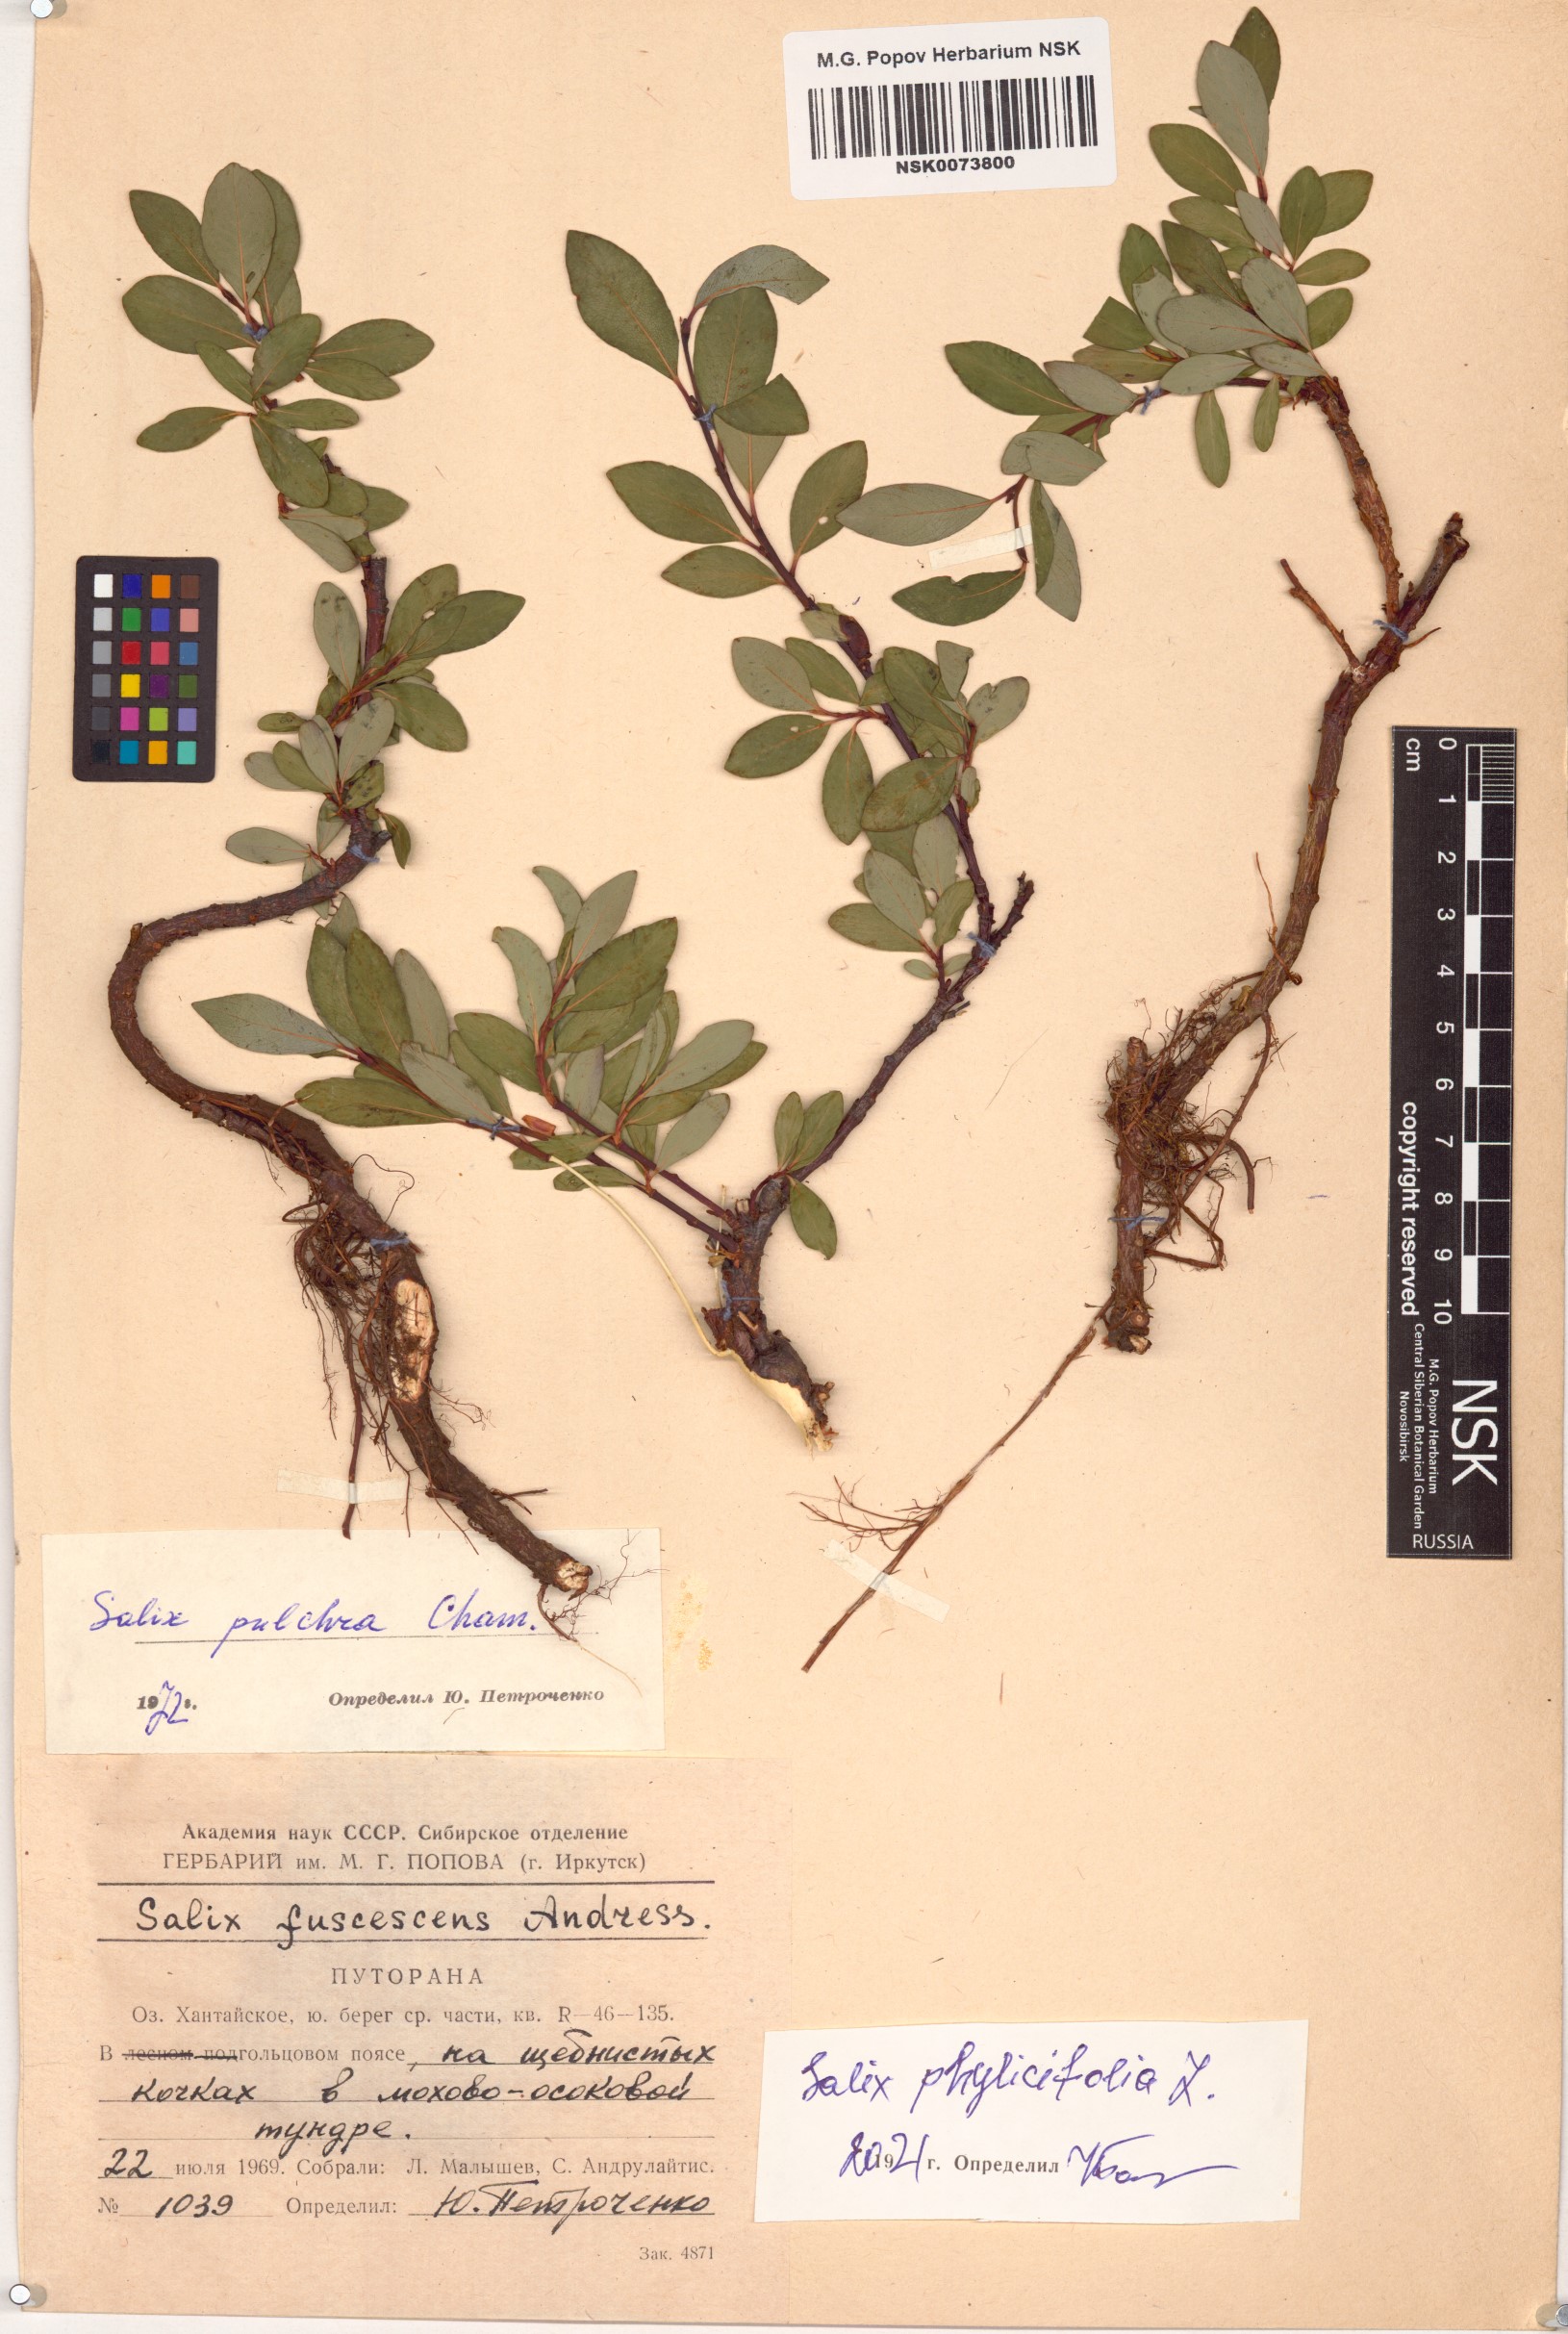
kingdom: Plantae
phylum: Tracheophyta
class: Magnoliopsida
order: Malpighiales
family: Salicaceae
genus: Salix
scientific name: Salix phylicifolia
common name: Tea-leaved willow
